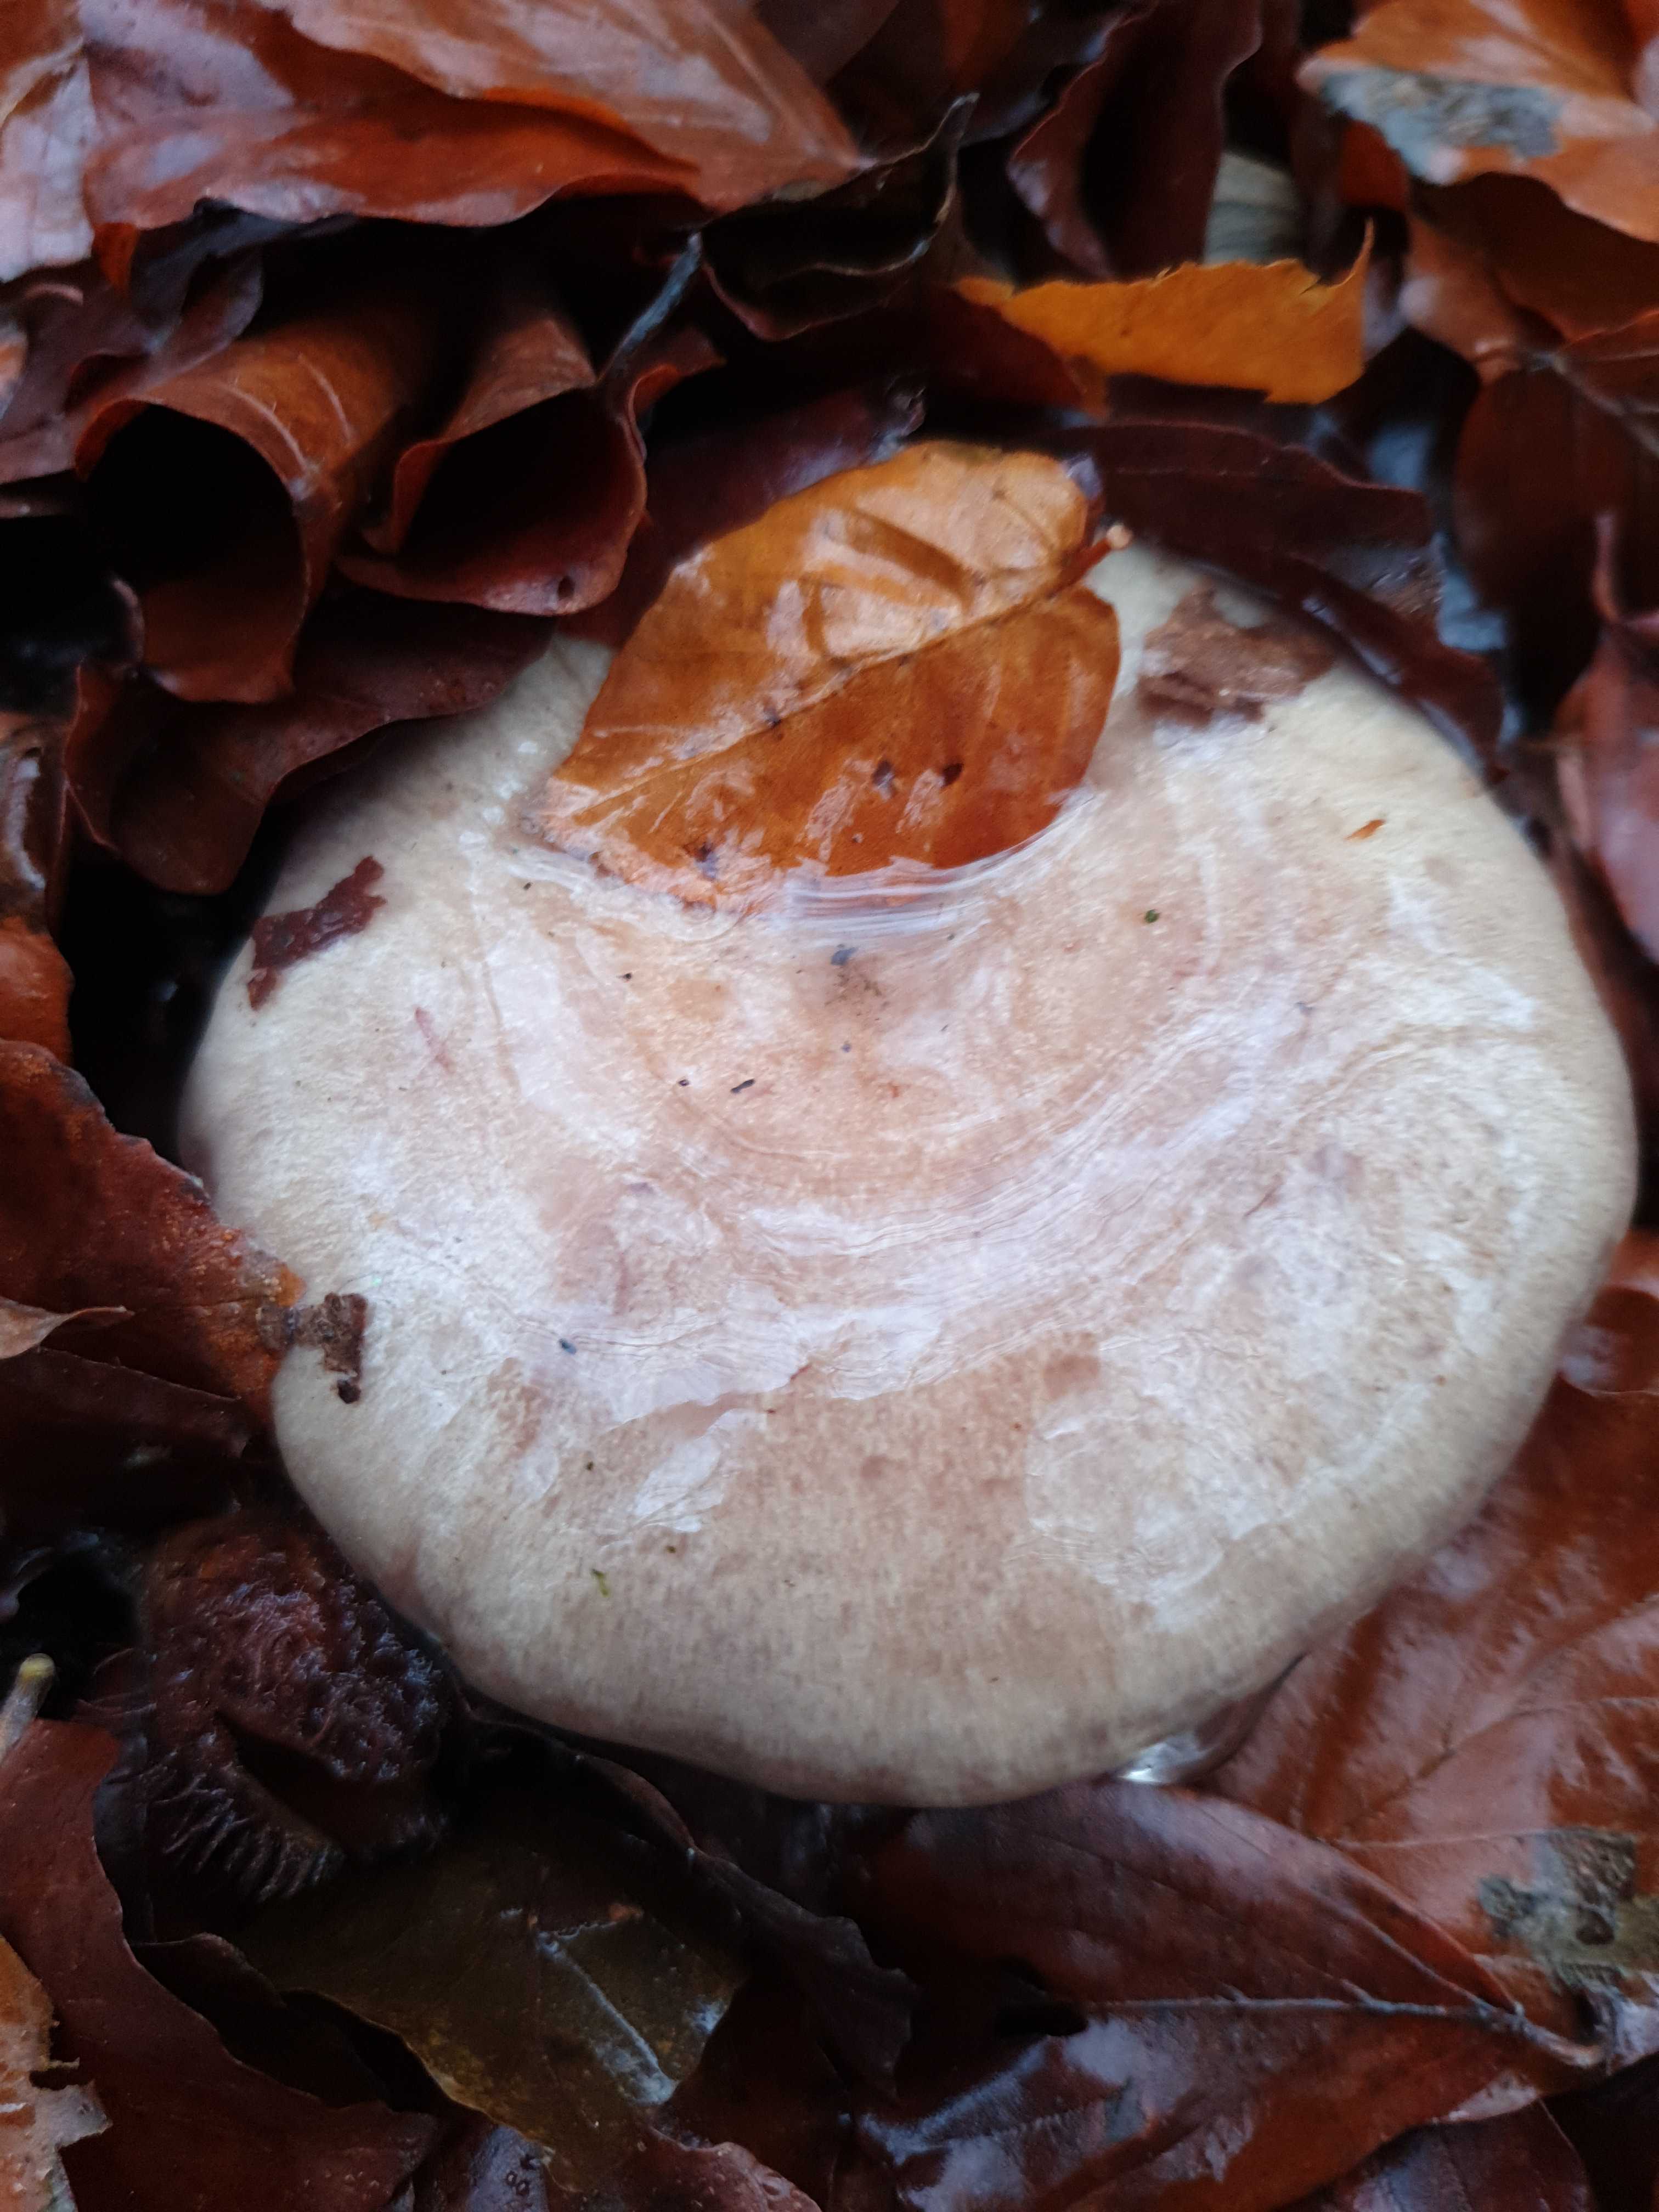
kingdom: Fungi
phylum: Basidiomycota
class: Agaricomycetes
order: Russulales
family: Russulaceae
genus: Lactarius
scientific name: Lactarius
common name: mælkehat
